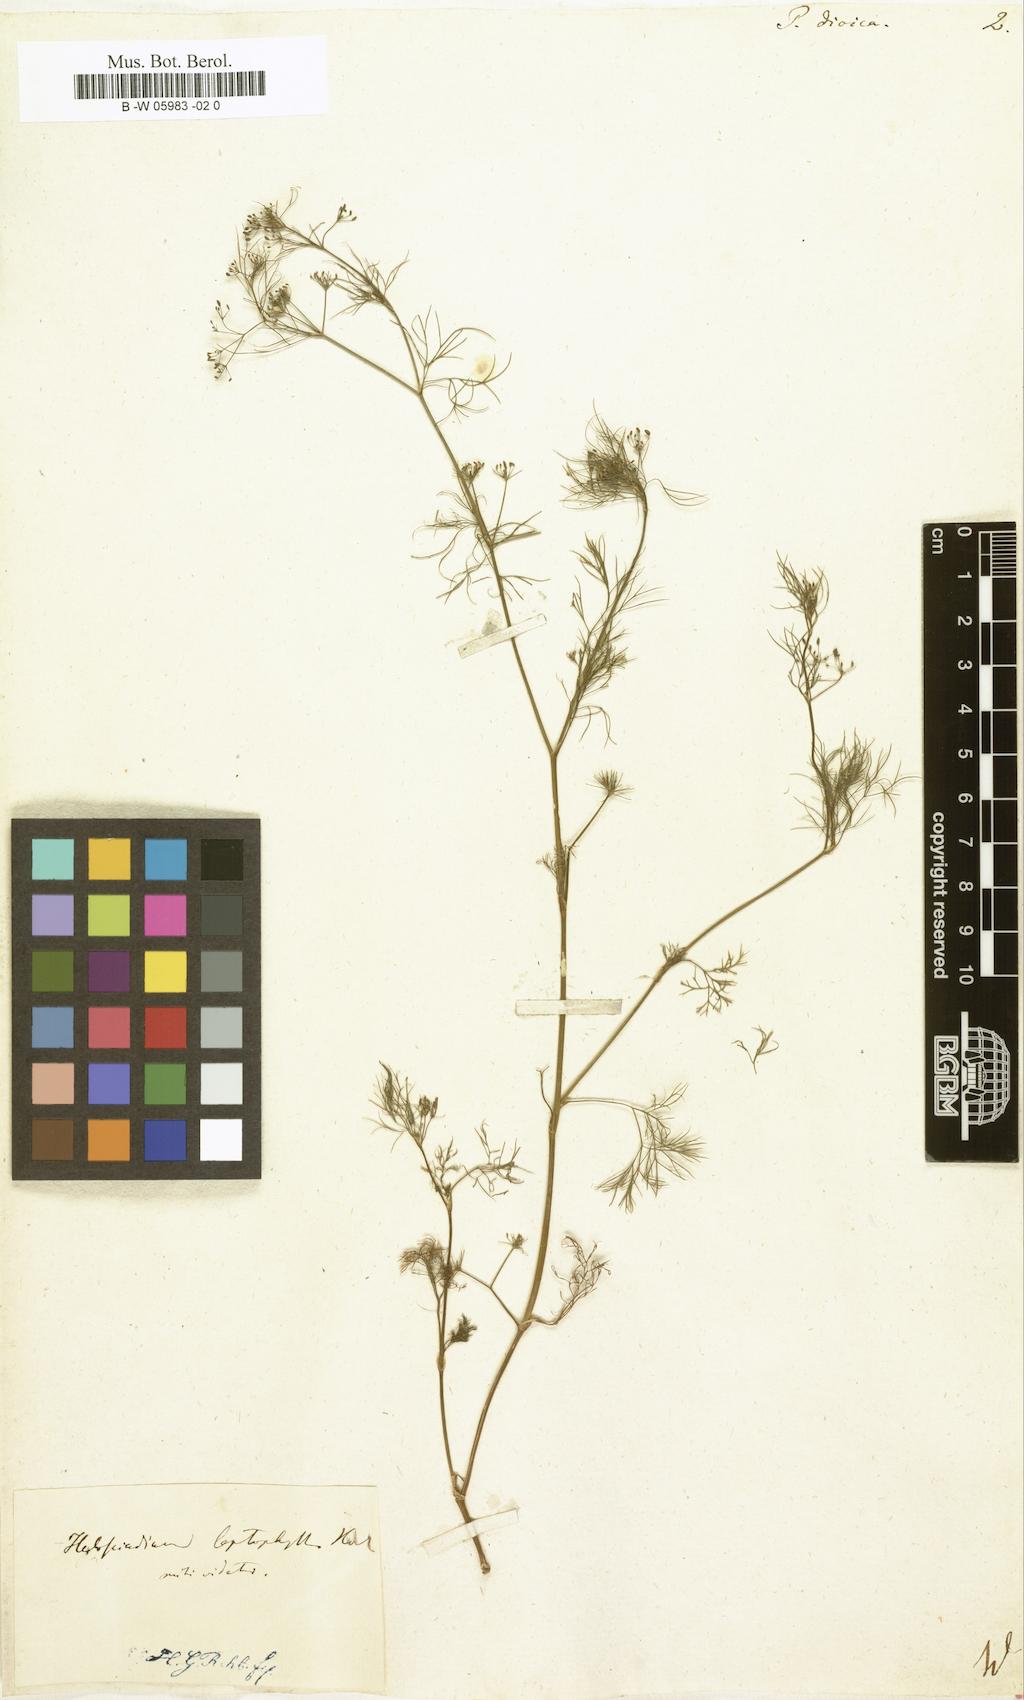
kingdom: Plantae
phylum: Tracheophyta
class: Magnoliopsida
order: Apiales
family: Apiaceae
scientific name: Apiaceae
